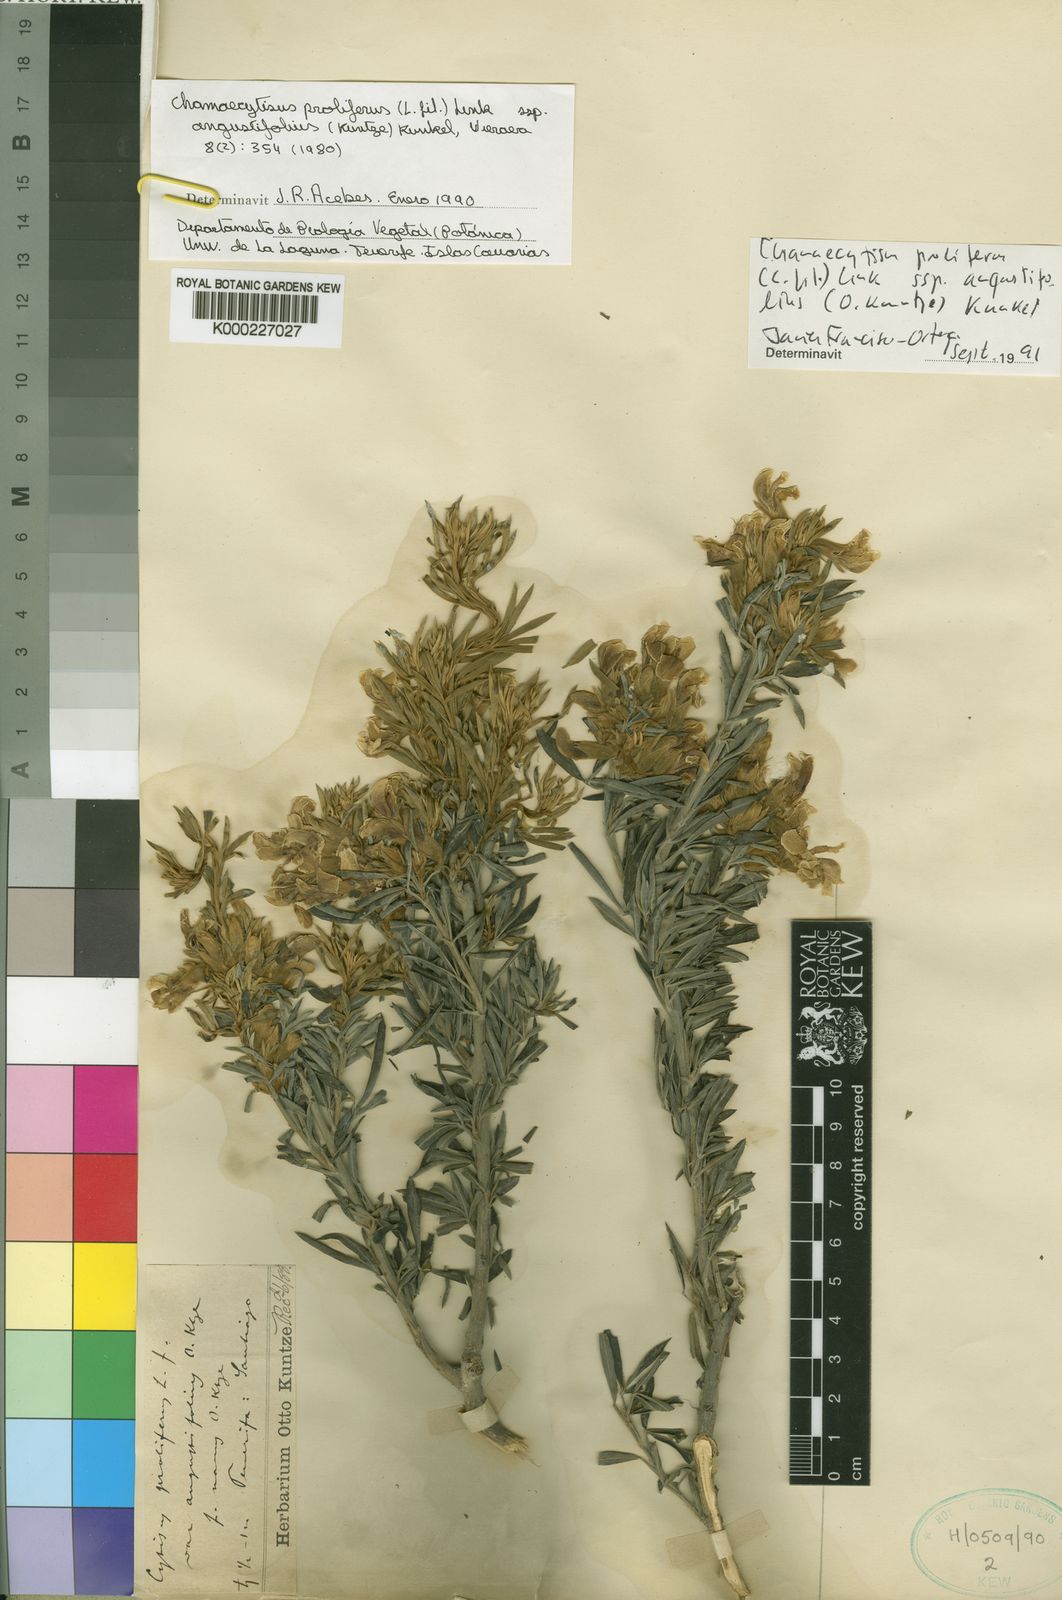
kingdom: Plantae
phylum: Tracheophyta
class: Magnoliopsida
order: Fabales
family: Fabaceae
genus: Cytisus
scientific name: Cytisus
